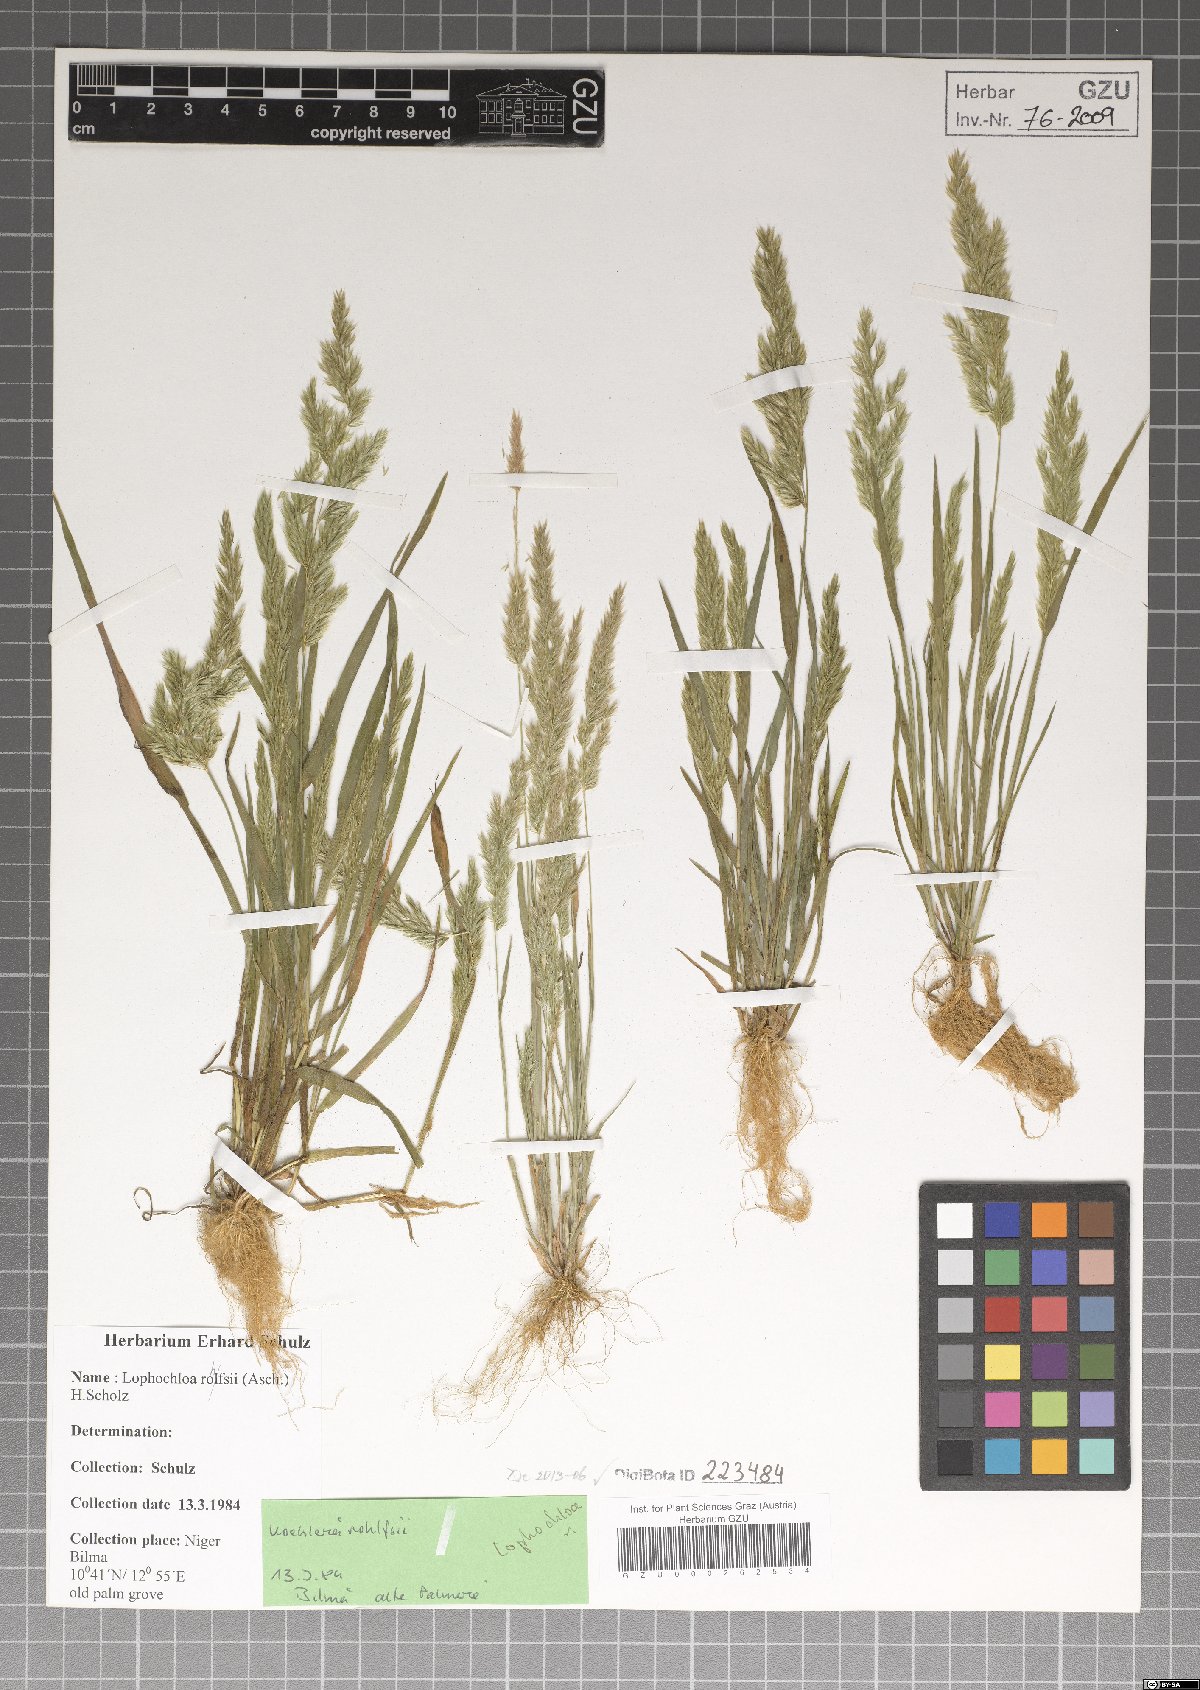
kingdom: Plantae
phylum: Tracheophyta
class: Liliopsida
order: Poales
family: Poaceae
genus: Rostraria
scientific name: Rostraria rohlfsii
